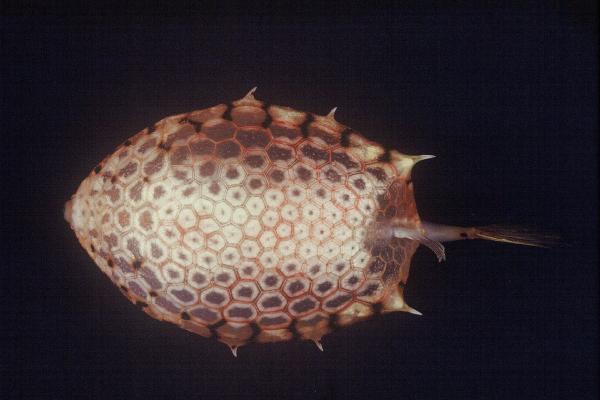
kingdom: Animalia
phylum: Chordata
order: Tetraodontiformes
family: Ostraciidae
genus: Lactoria
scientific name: Lactoria diaphana
